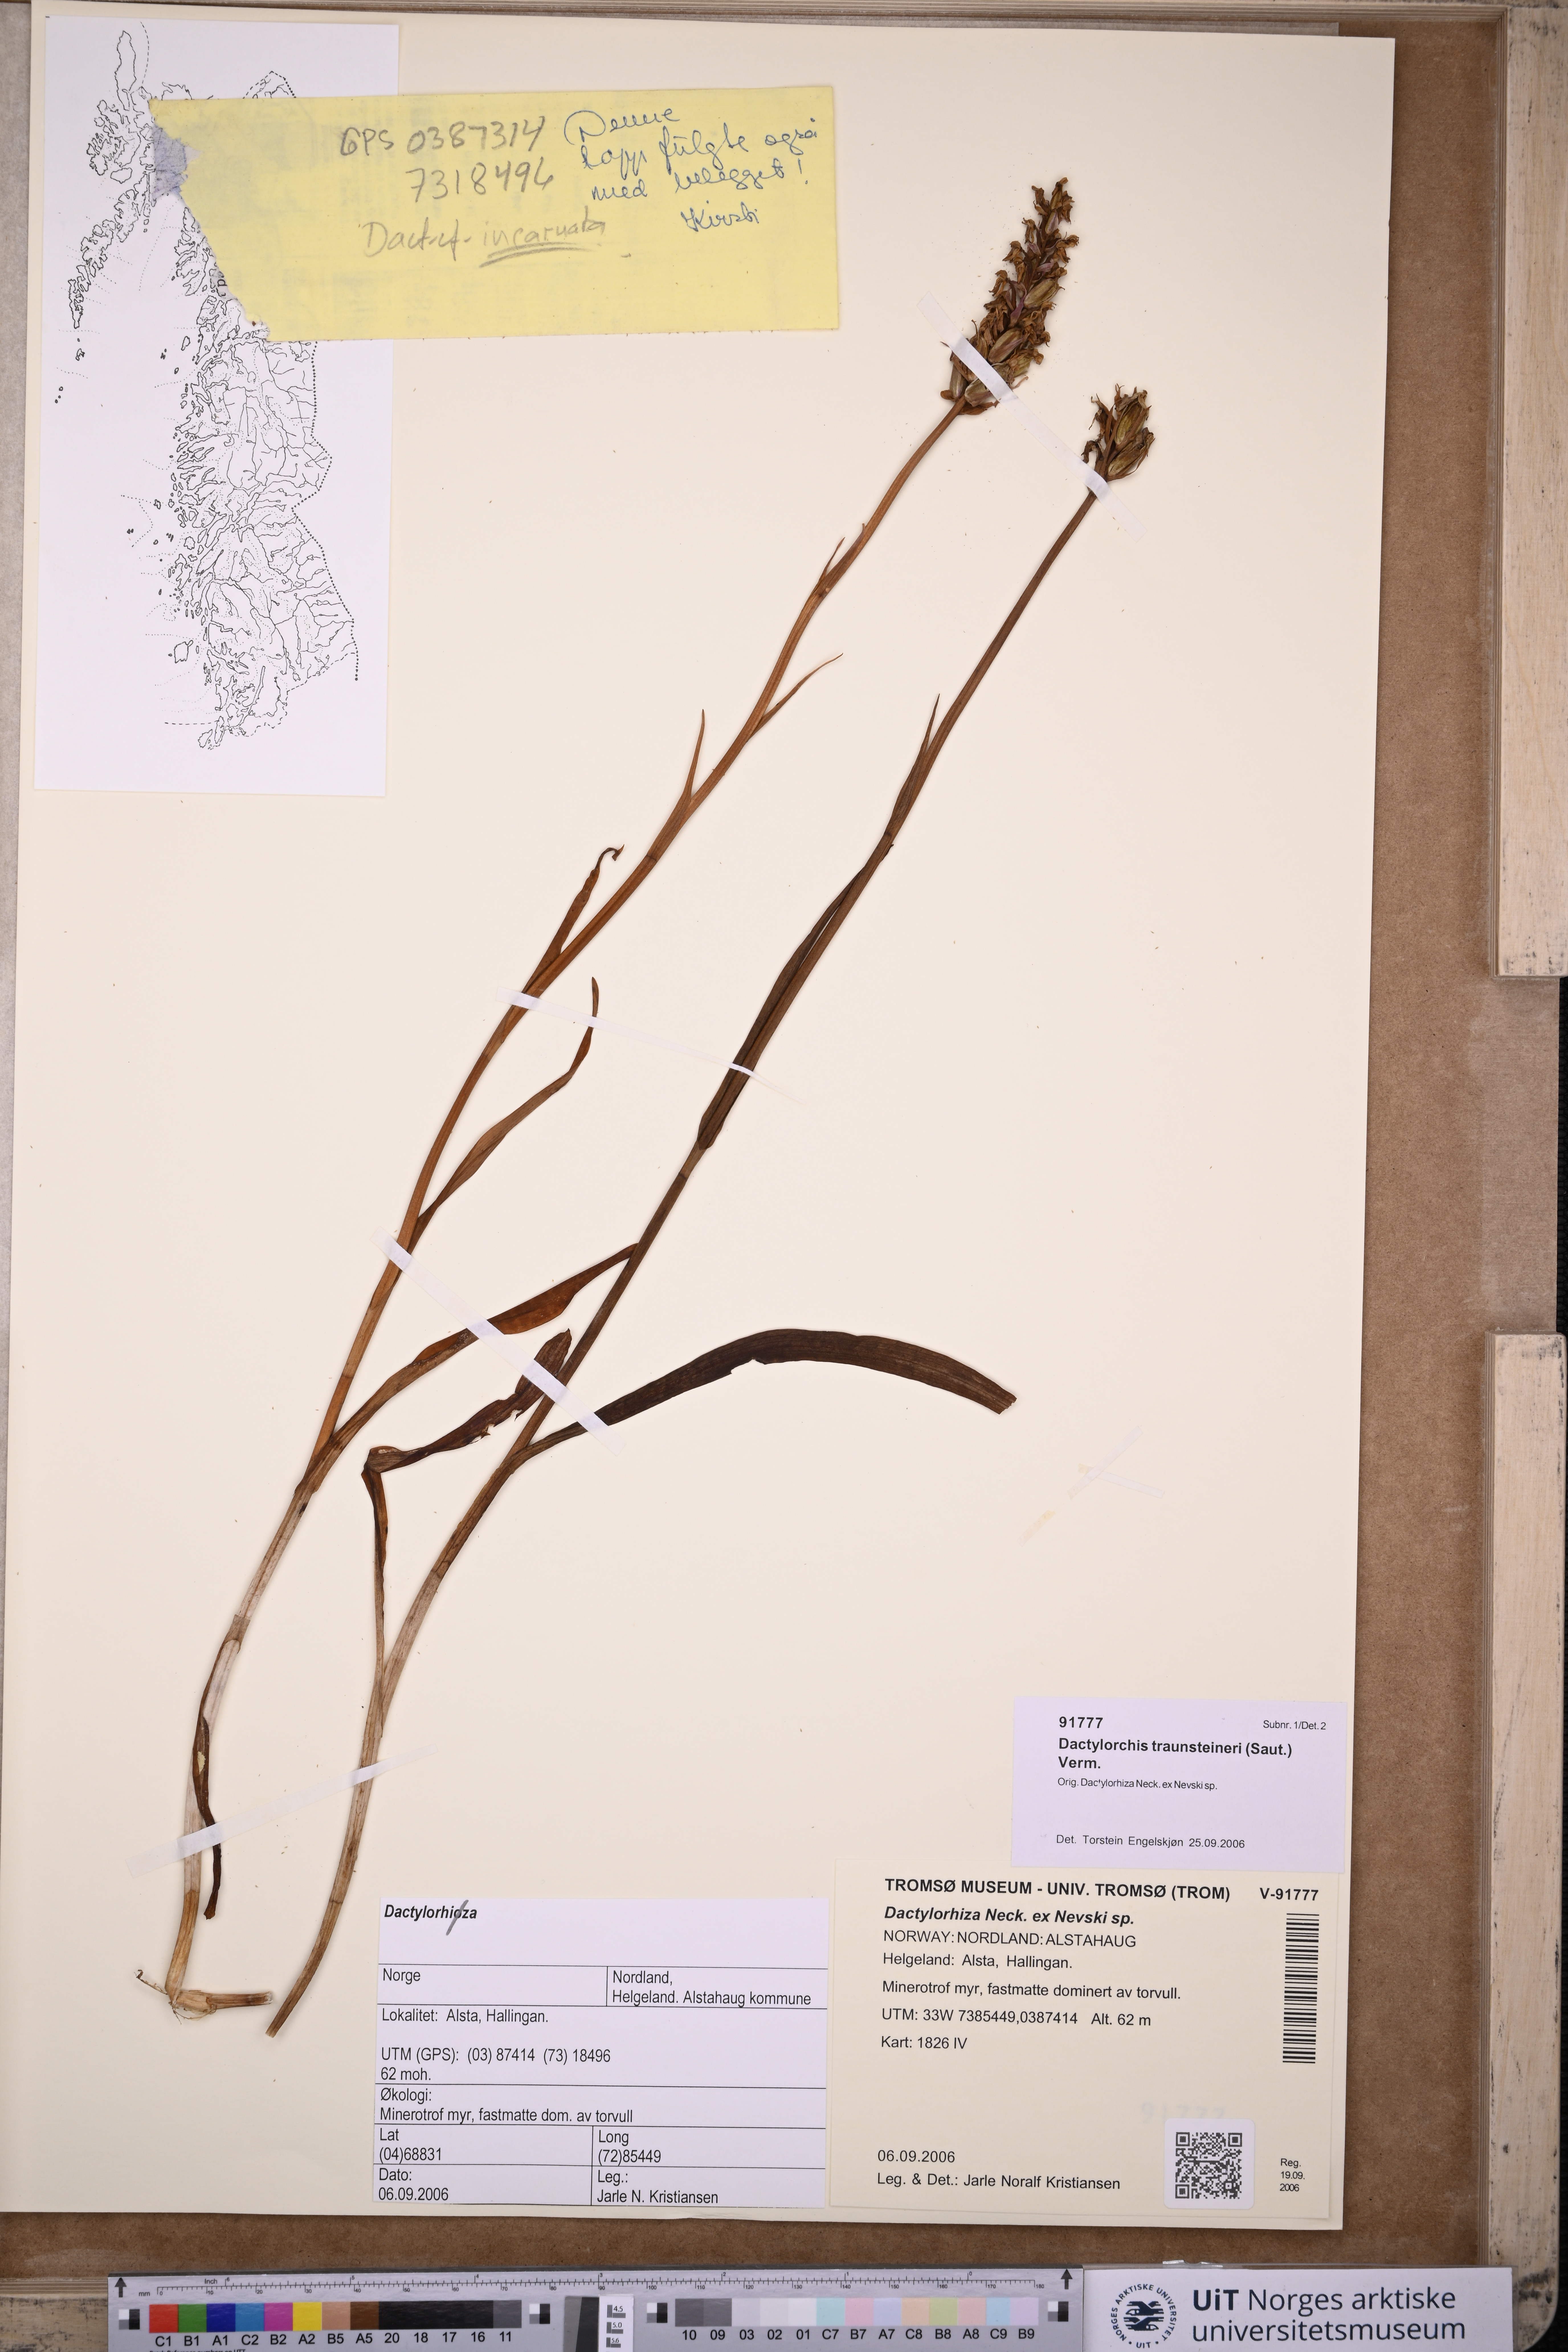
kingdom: Plantae
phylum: Tracheophyta
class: Liliopsida
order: Asparagales
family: Orchidaceae
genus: Dactylorhiza
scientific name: Dactylorhiza majalis
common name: Marsh orchid
